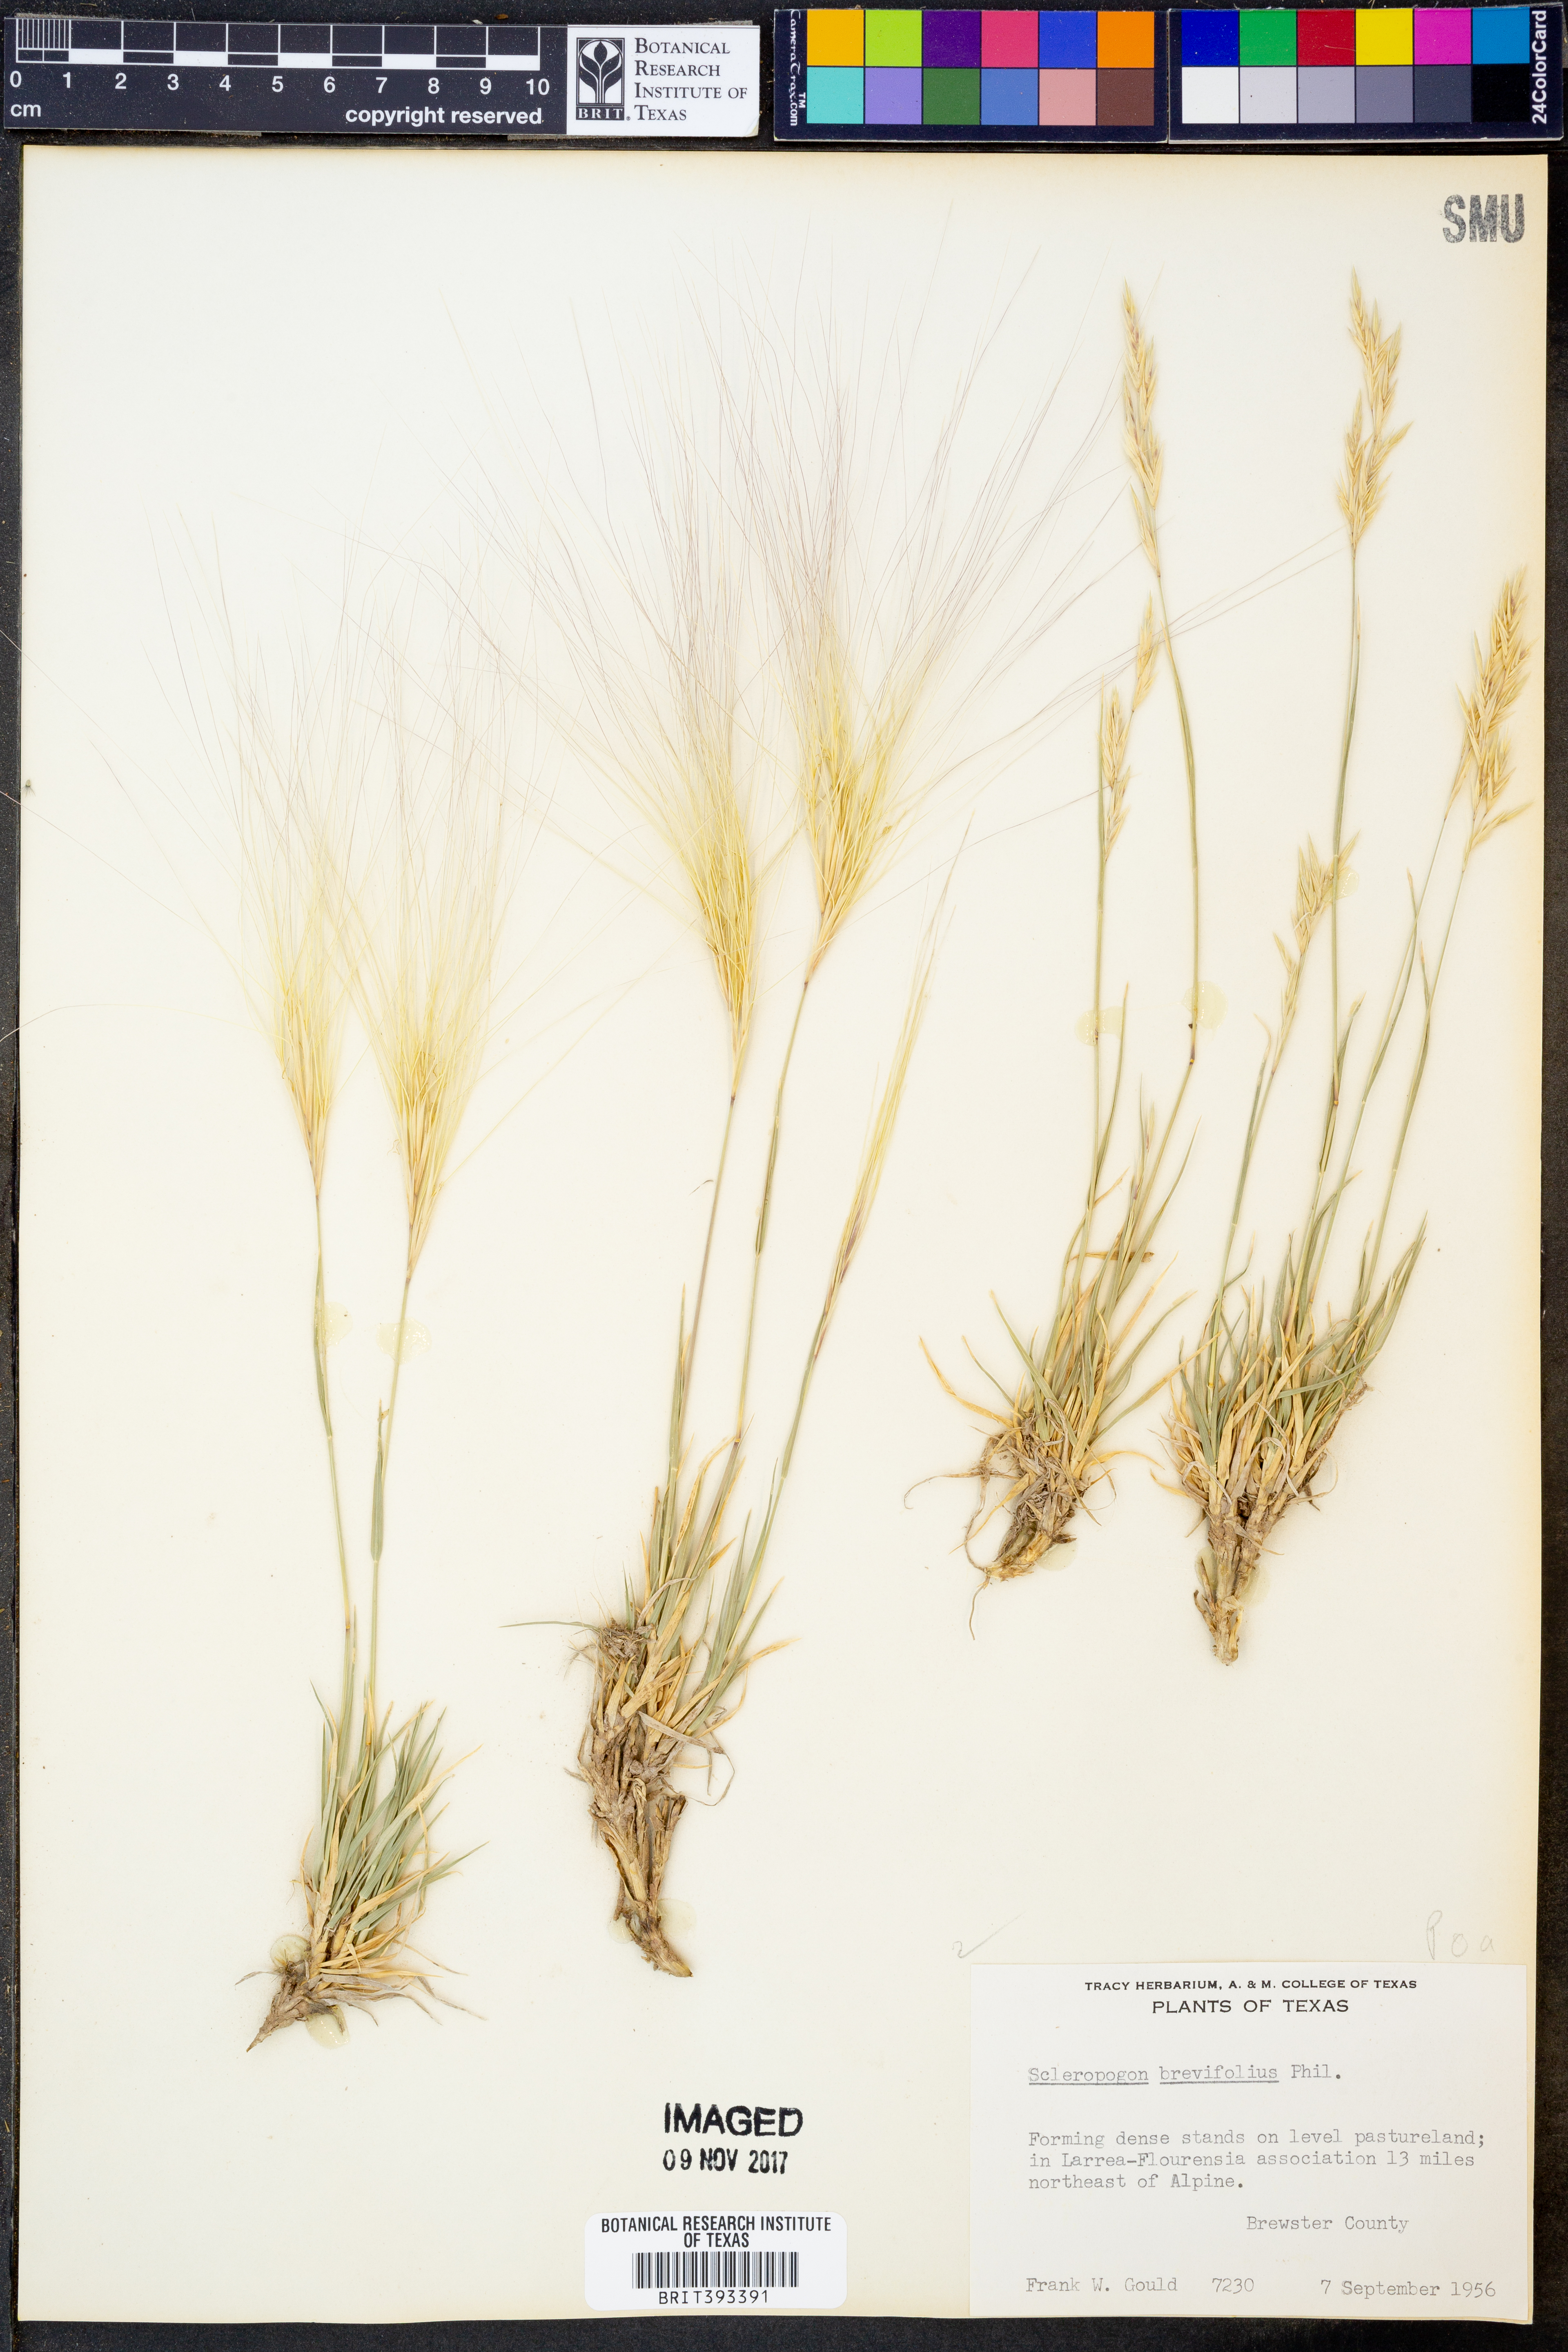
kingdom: Plantae
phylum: Tracheophyta
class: Liliopsida
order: Poales
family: Poaceae
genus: Scleropogon
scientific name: Scleropogon brevifolius
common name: Burro grass
